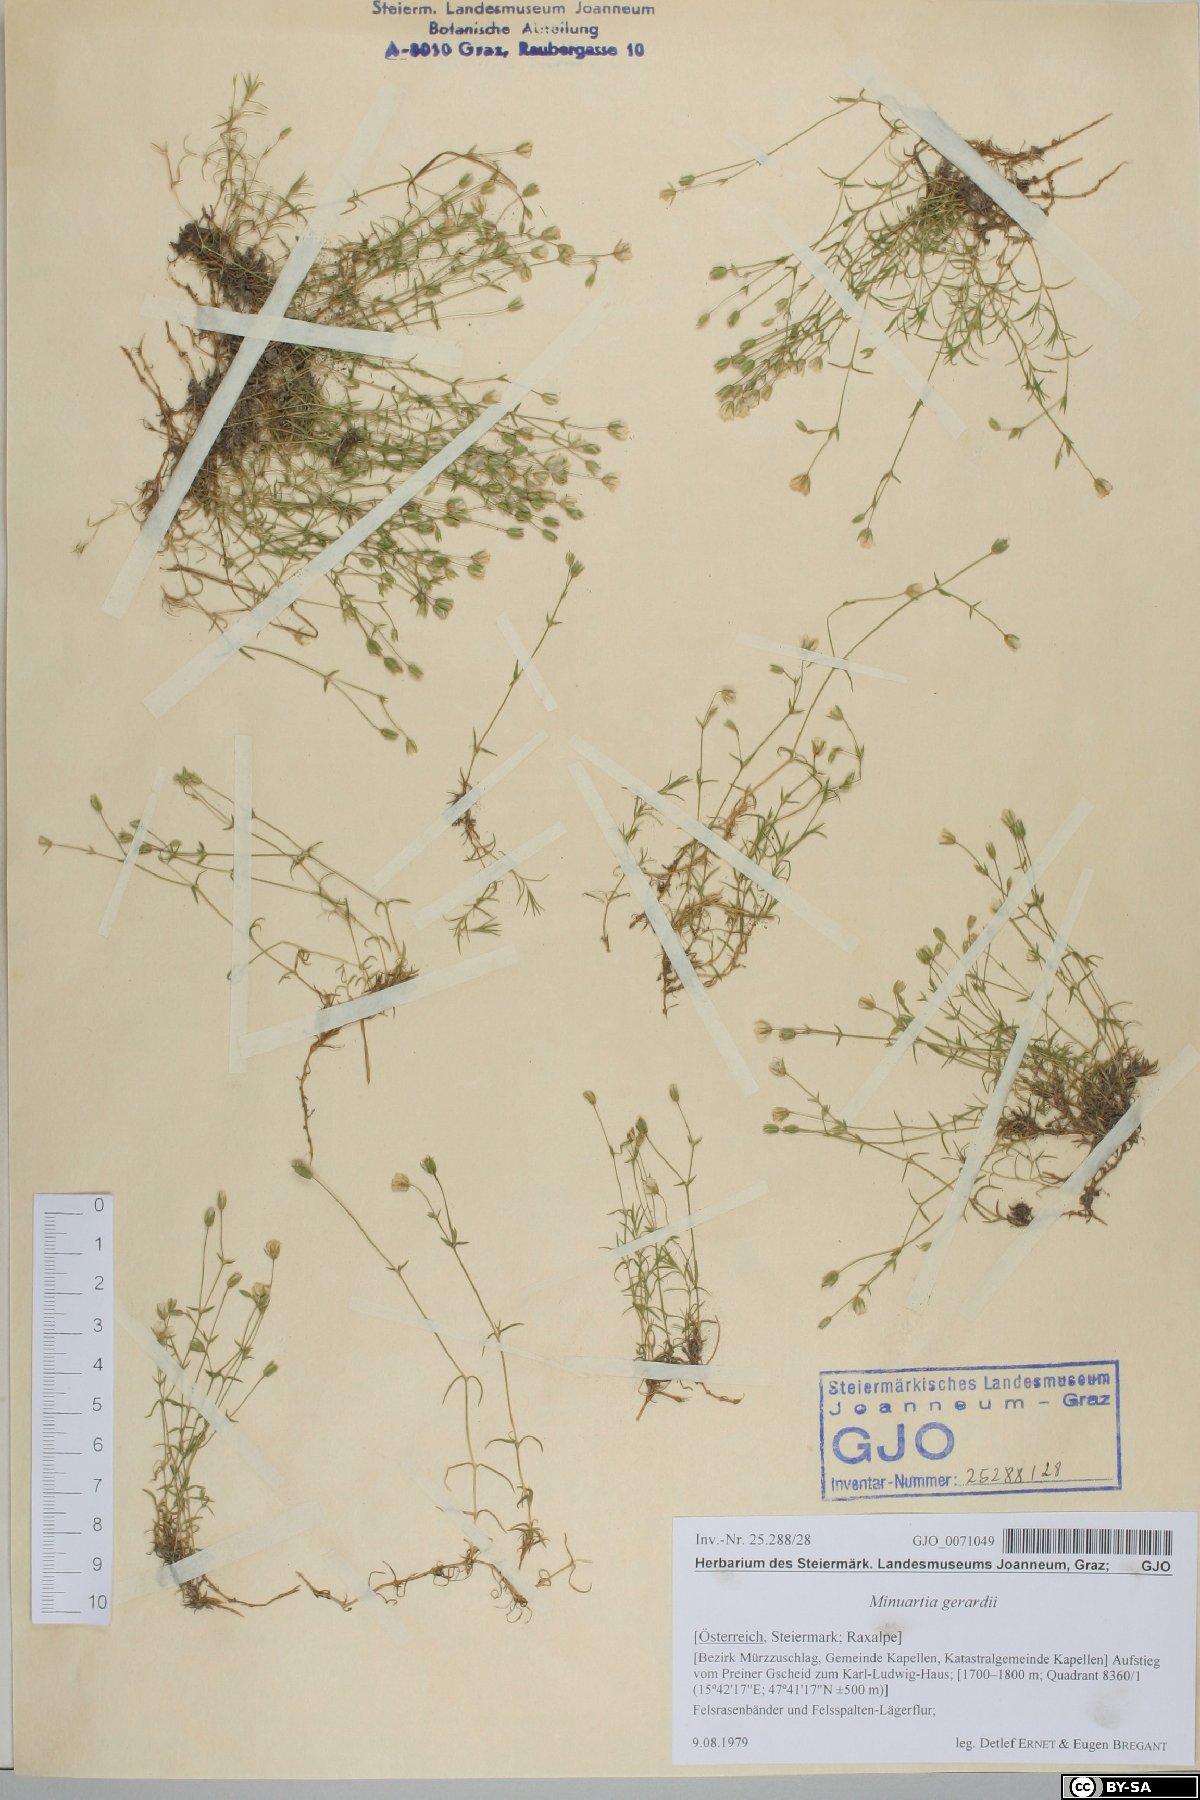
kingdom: Plantae
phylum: Tracheophyta
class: Magnoliopsida
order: Caryophyllales
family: Caryophyllaceae
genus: Sabulina
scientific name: Sabulina verna
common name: Spring sandwort
